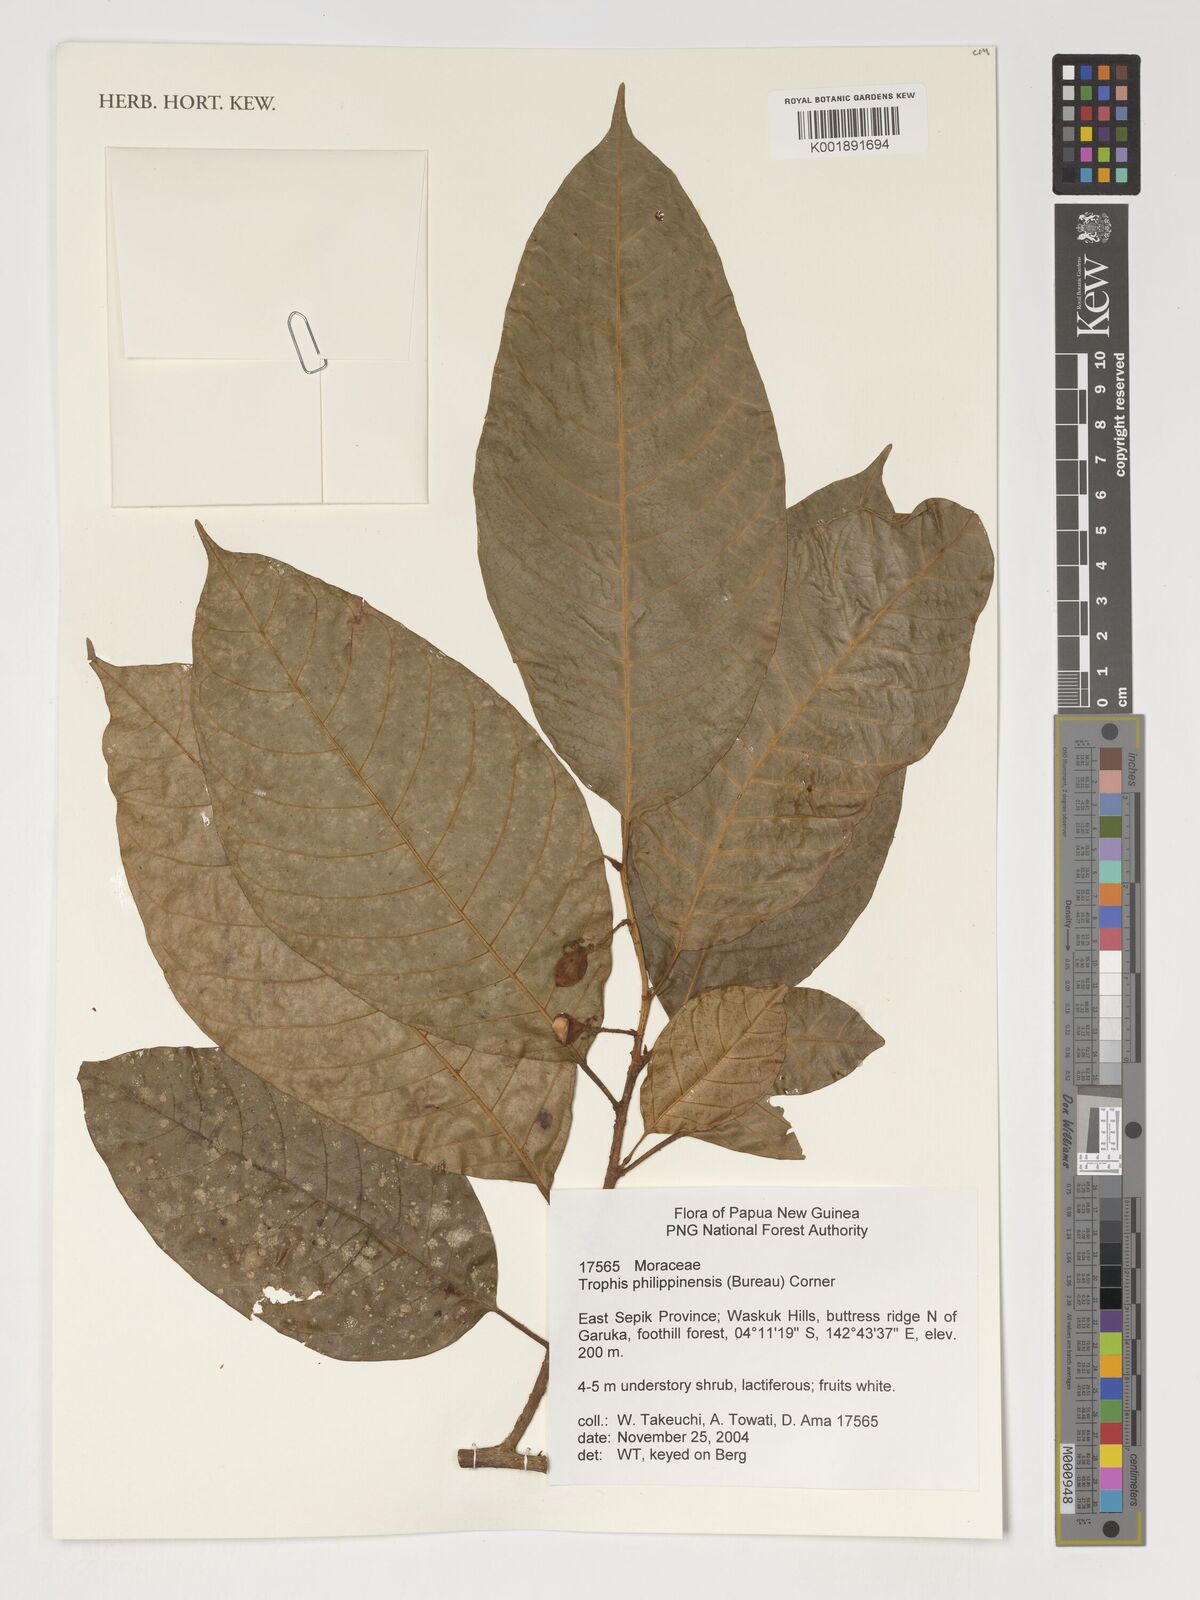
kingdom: Plantae
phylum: Tracheophyta
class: Magnoliopsida
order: Rosales
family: Moraceae
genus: Paratrophis
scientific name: Paratrophis philippinensis
